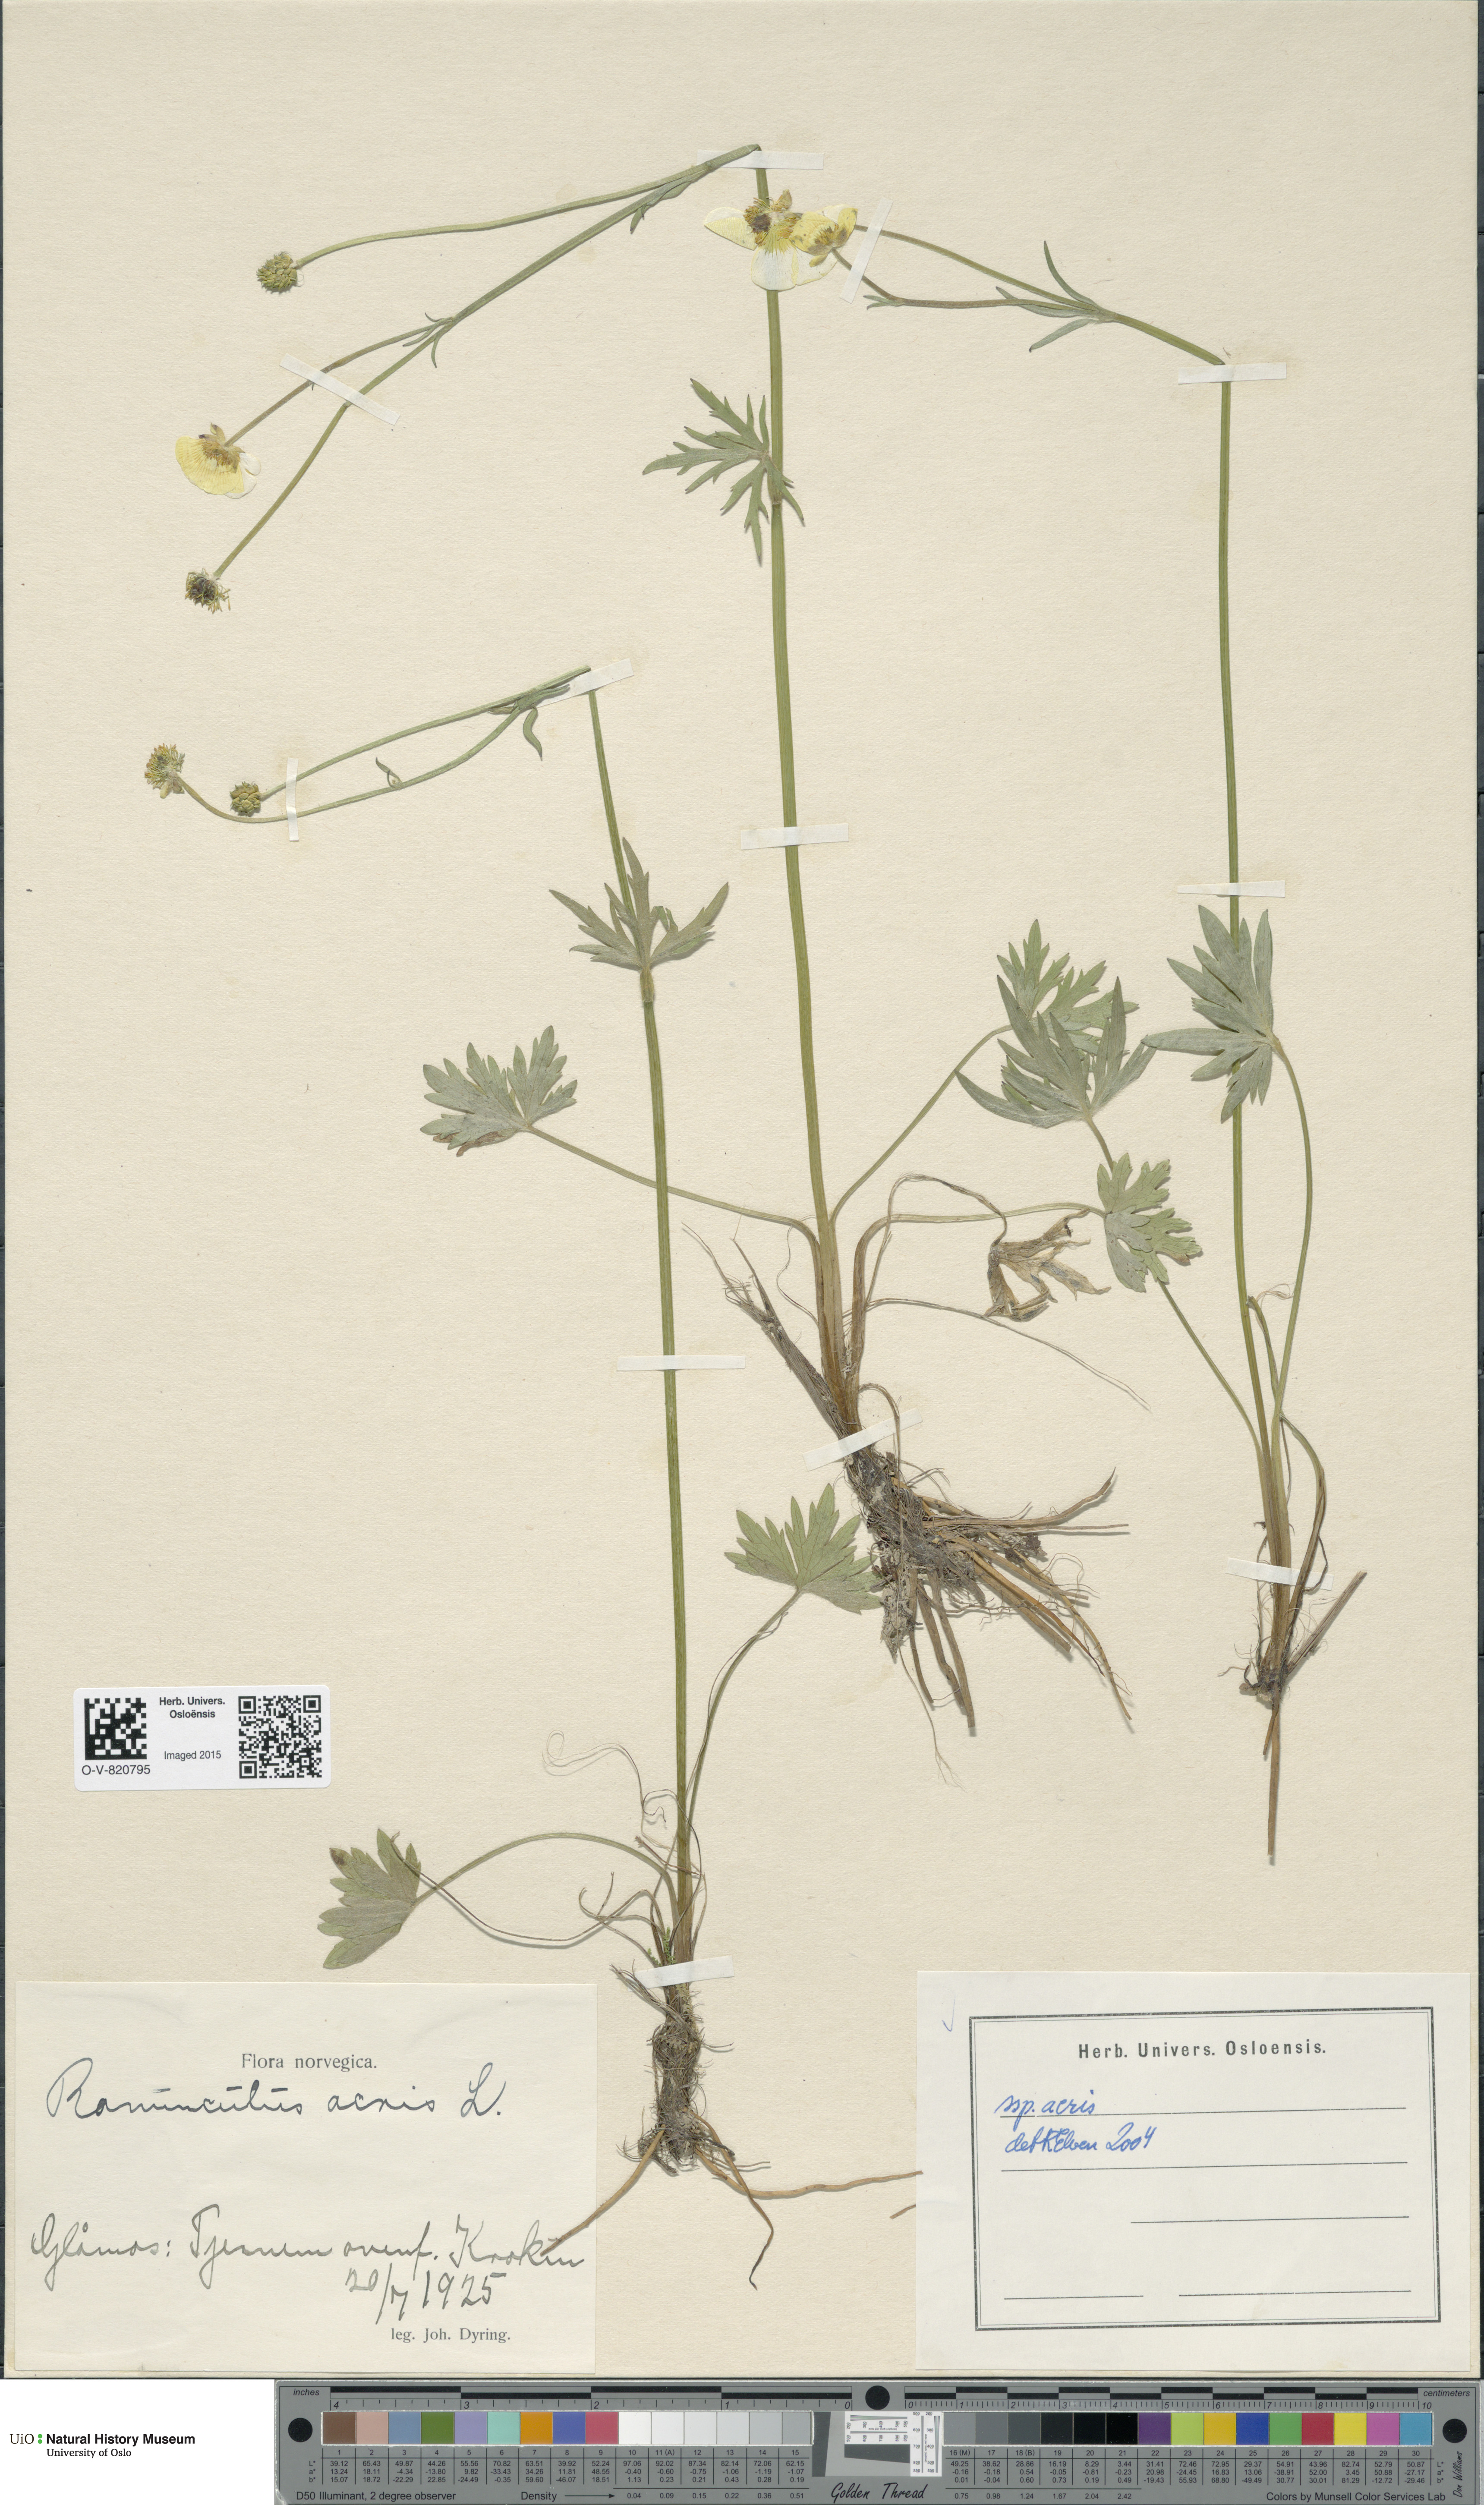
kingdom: Plantae
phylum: Tracheophyta
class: Magnoliopsida
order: Ranunculales
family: Ranunculaceae
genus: Ranunculus
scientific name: Ranunculus acris
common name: Meadow buttercup
